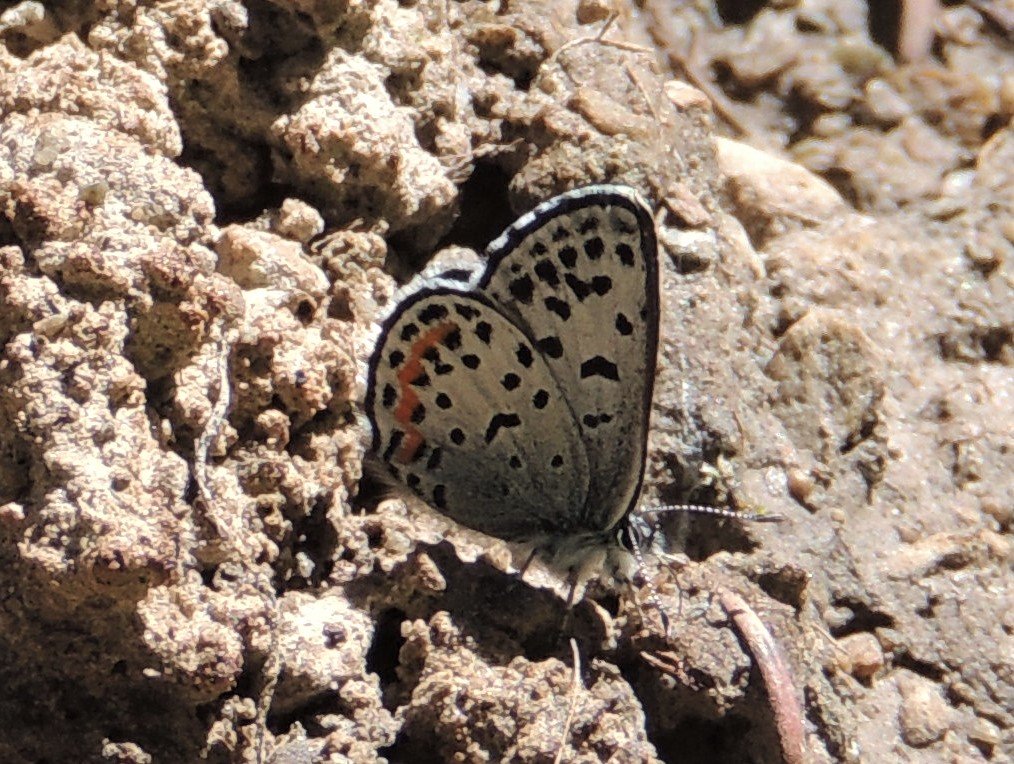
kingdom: Animalia
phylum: Arthropoda
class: Insecta
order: Lepidoptera
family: Lycaenidae
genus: Euphilotes
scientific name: Euphilotes battoides
